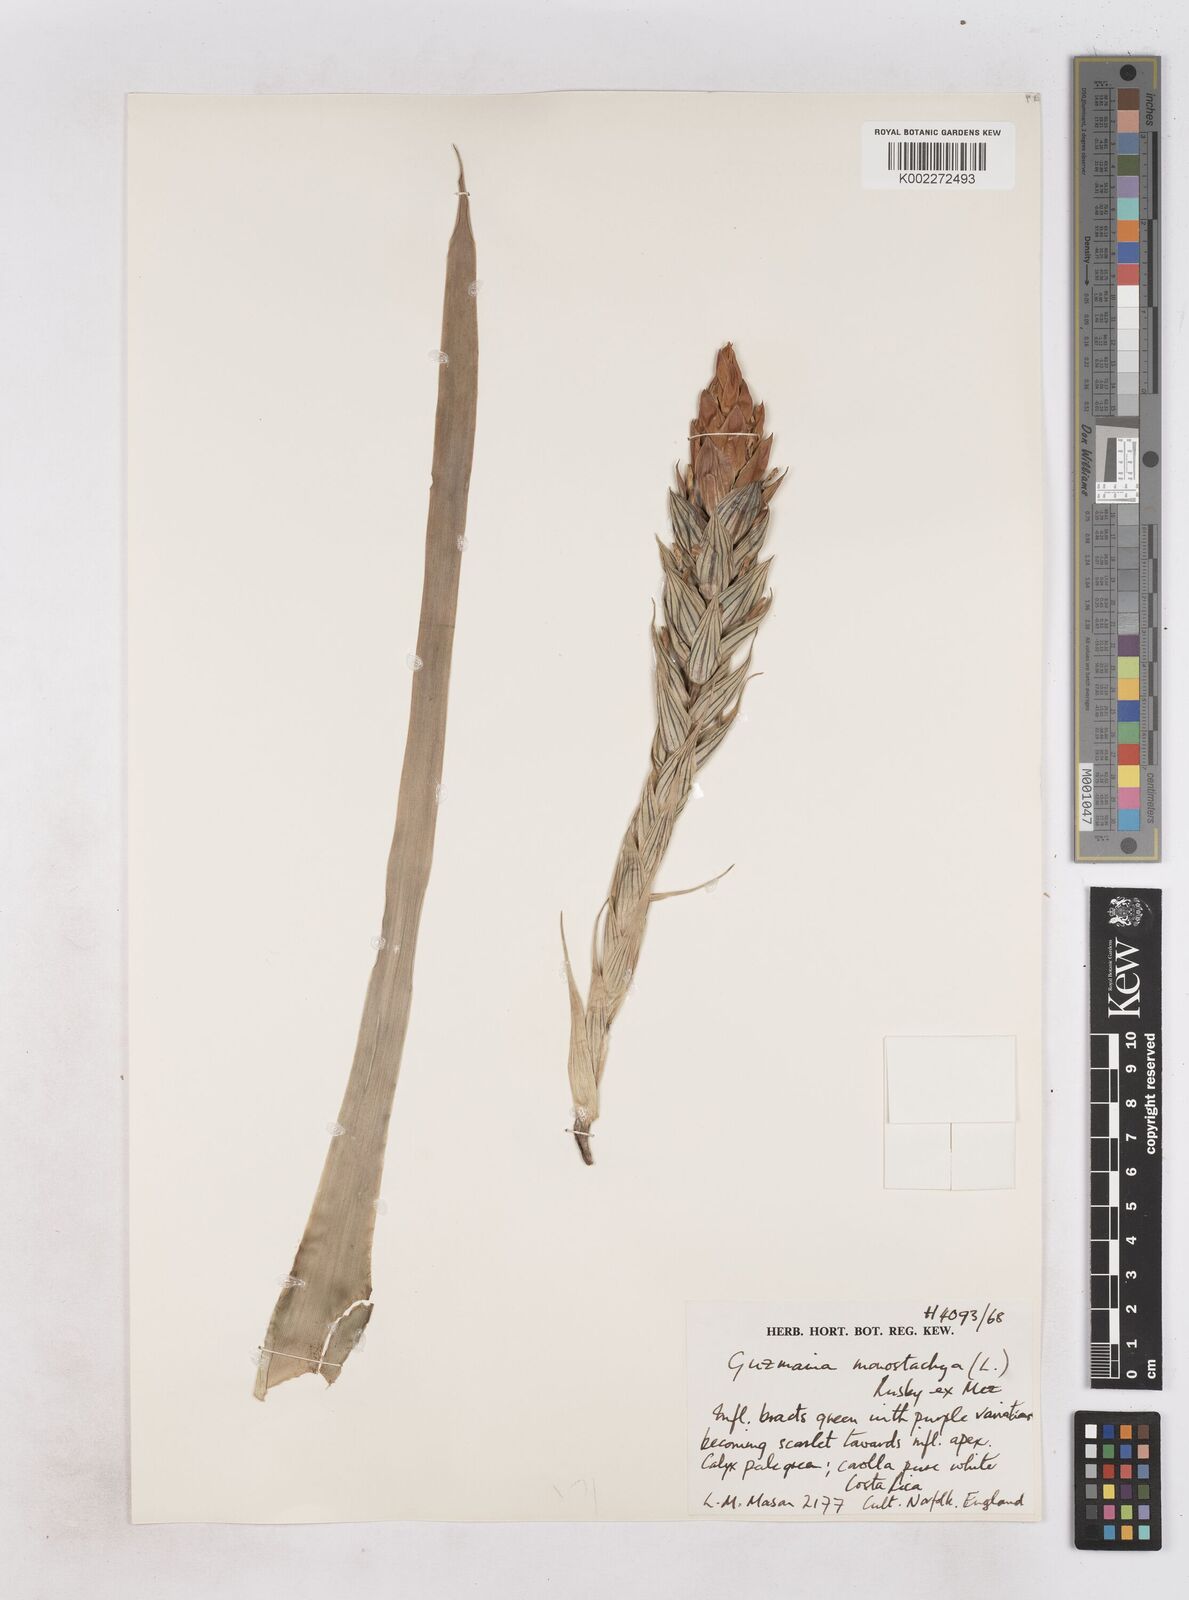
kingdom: Plantae
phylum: Tracheophyta
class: Liliopsida
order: Poales
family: Bromeliaceae
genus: Guzmania
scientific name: Guzmania monostachia
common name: West indian tufted airplant
